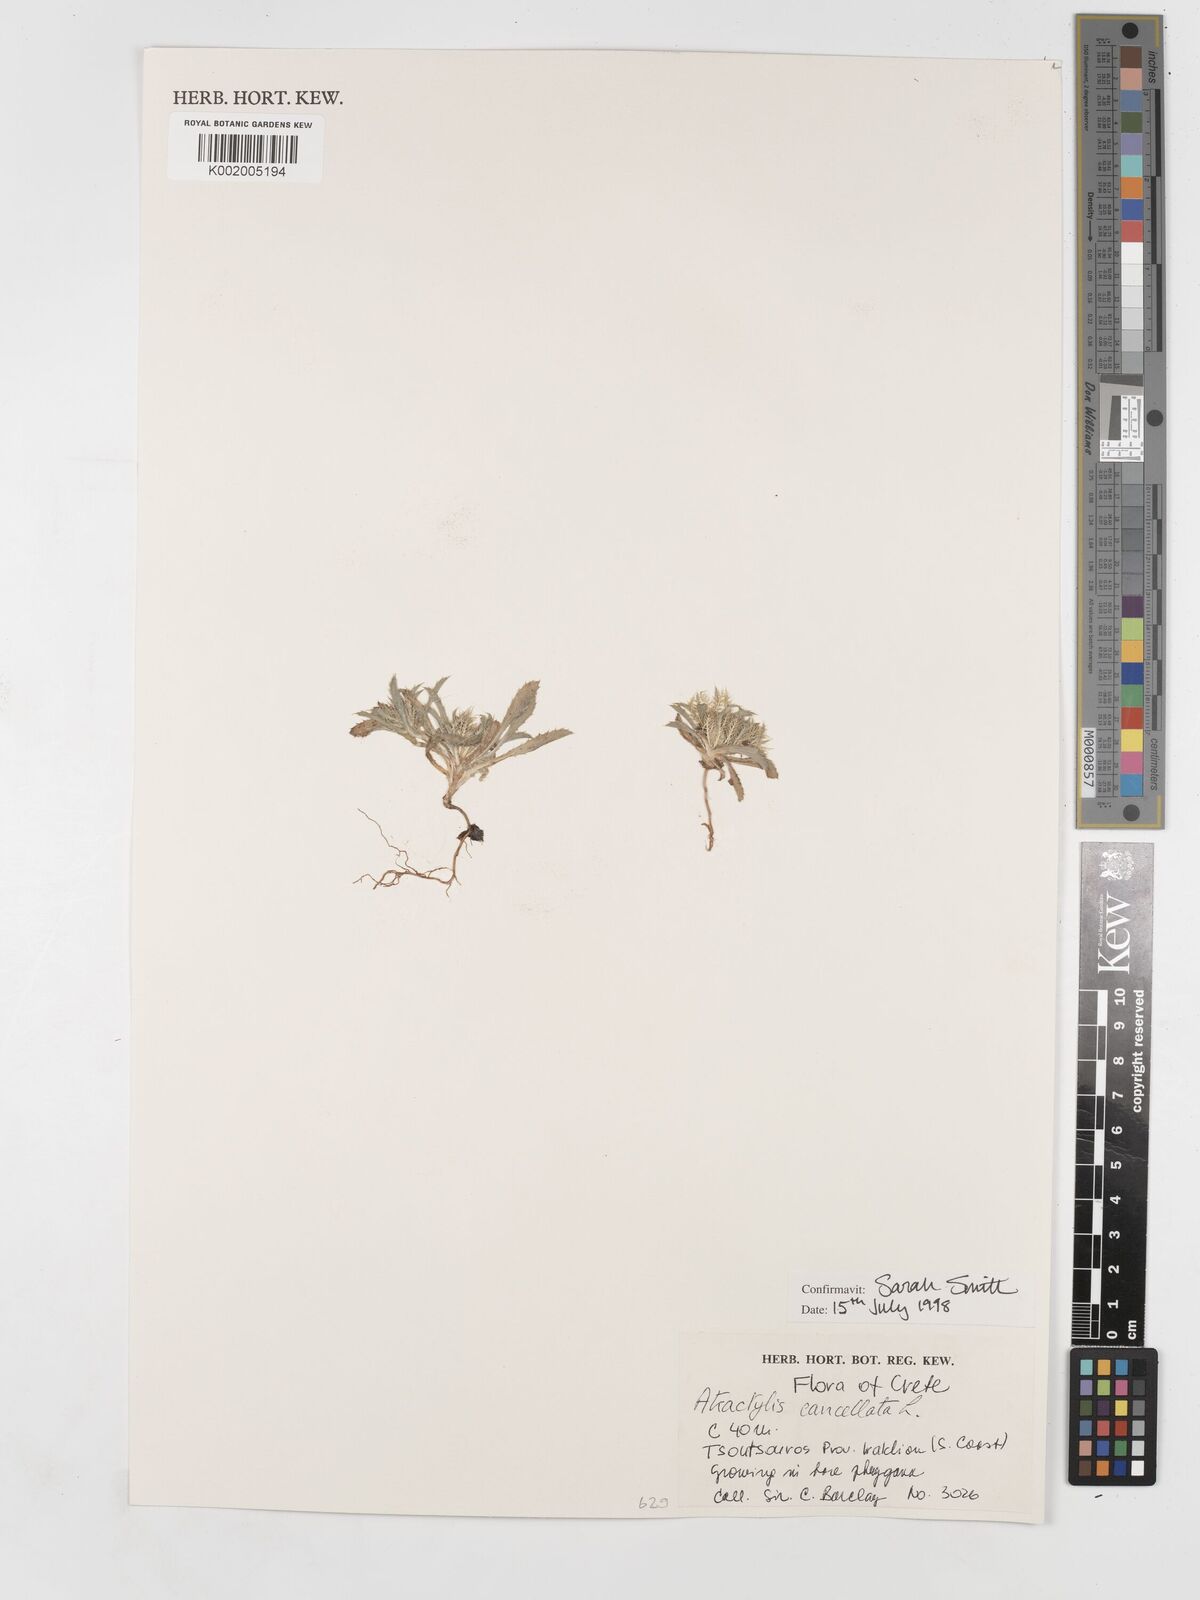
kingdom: Plantae
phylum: Tracheophyta
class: Magnoliopsida
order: Asterales
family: Asteraceae
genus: Atractylis
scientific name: Atractylis cancellata
